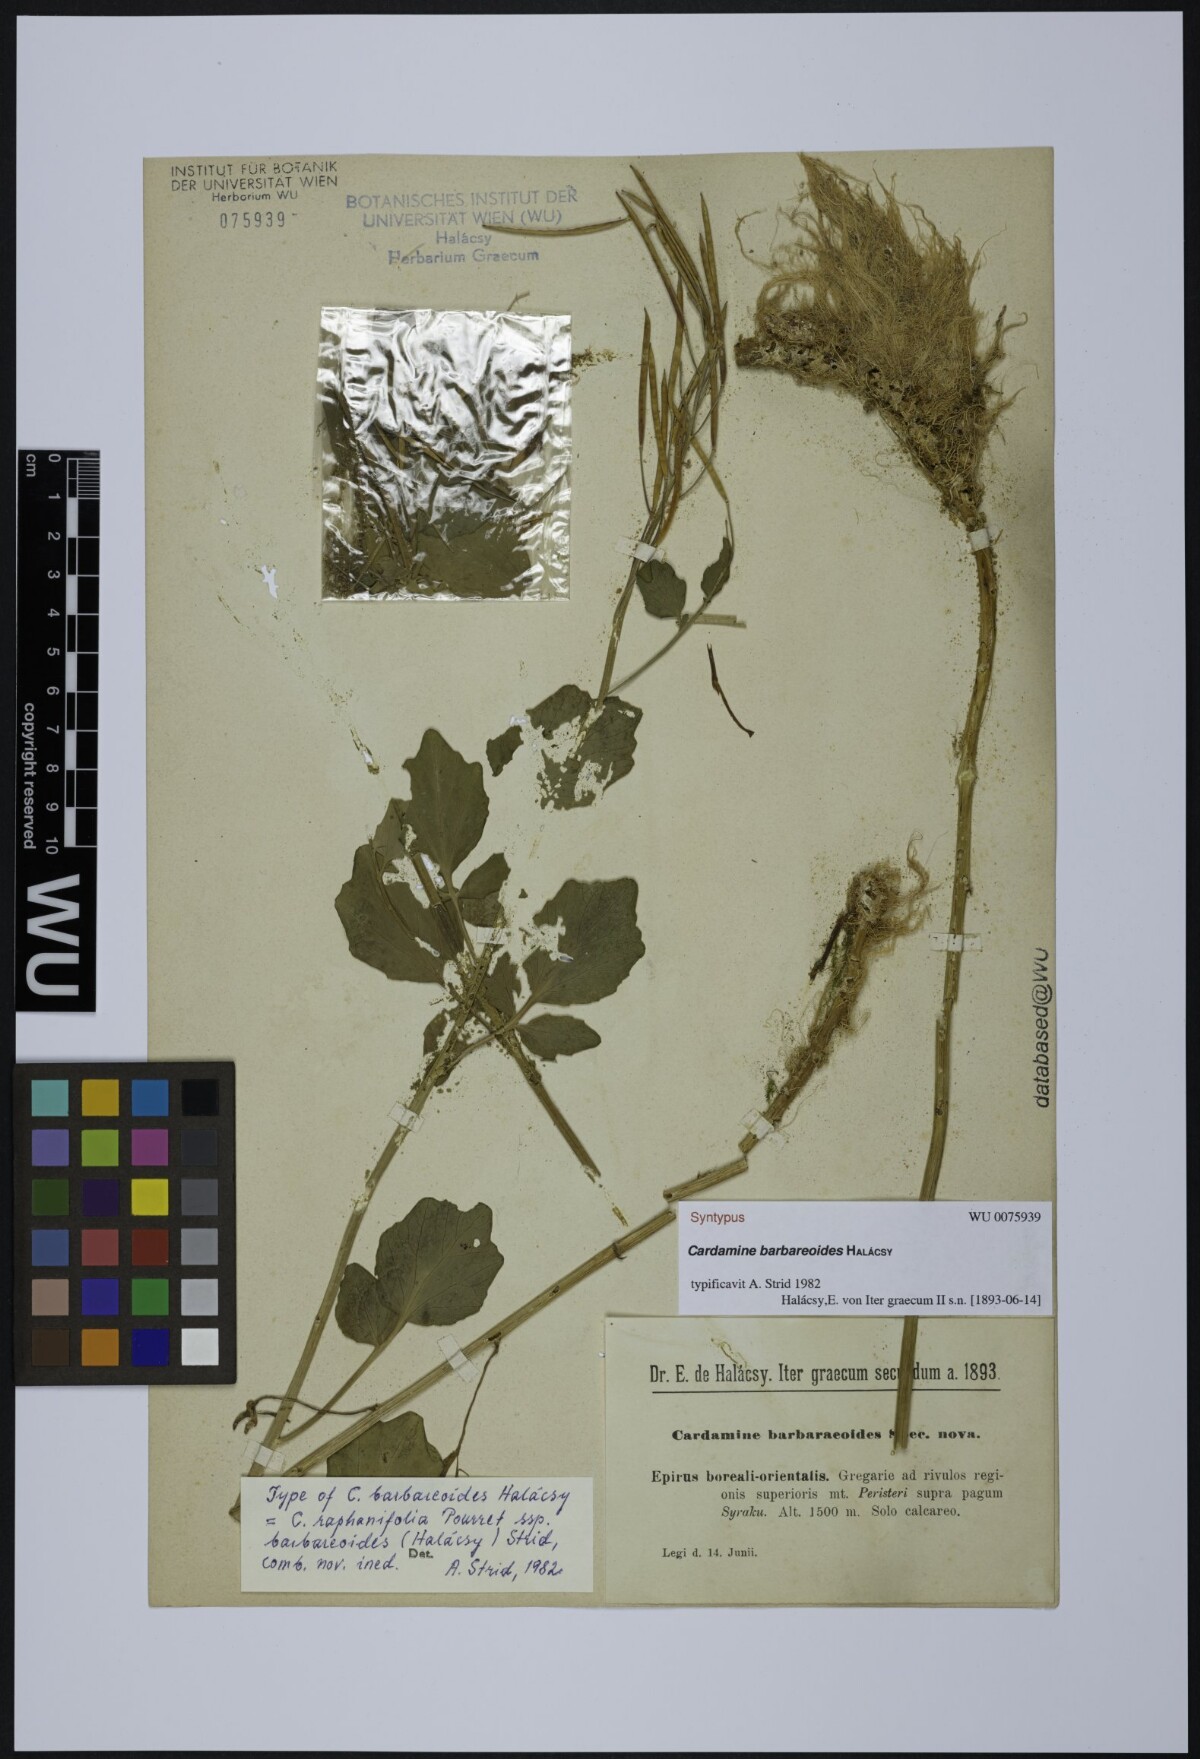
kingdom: Plantae
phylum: Tracheophyta
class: Magnoliopsida
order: Brassicales
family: Brassicaceae
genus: Cardamine
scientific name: Cardamine barbaraeoides
